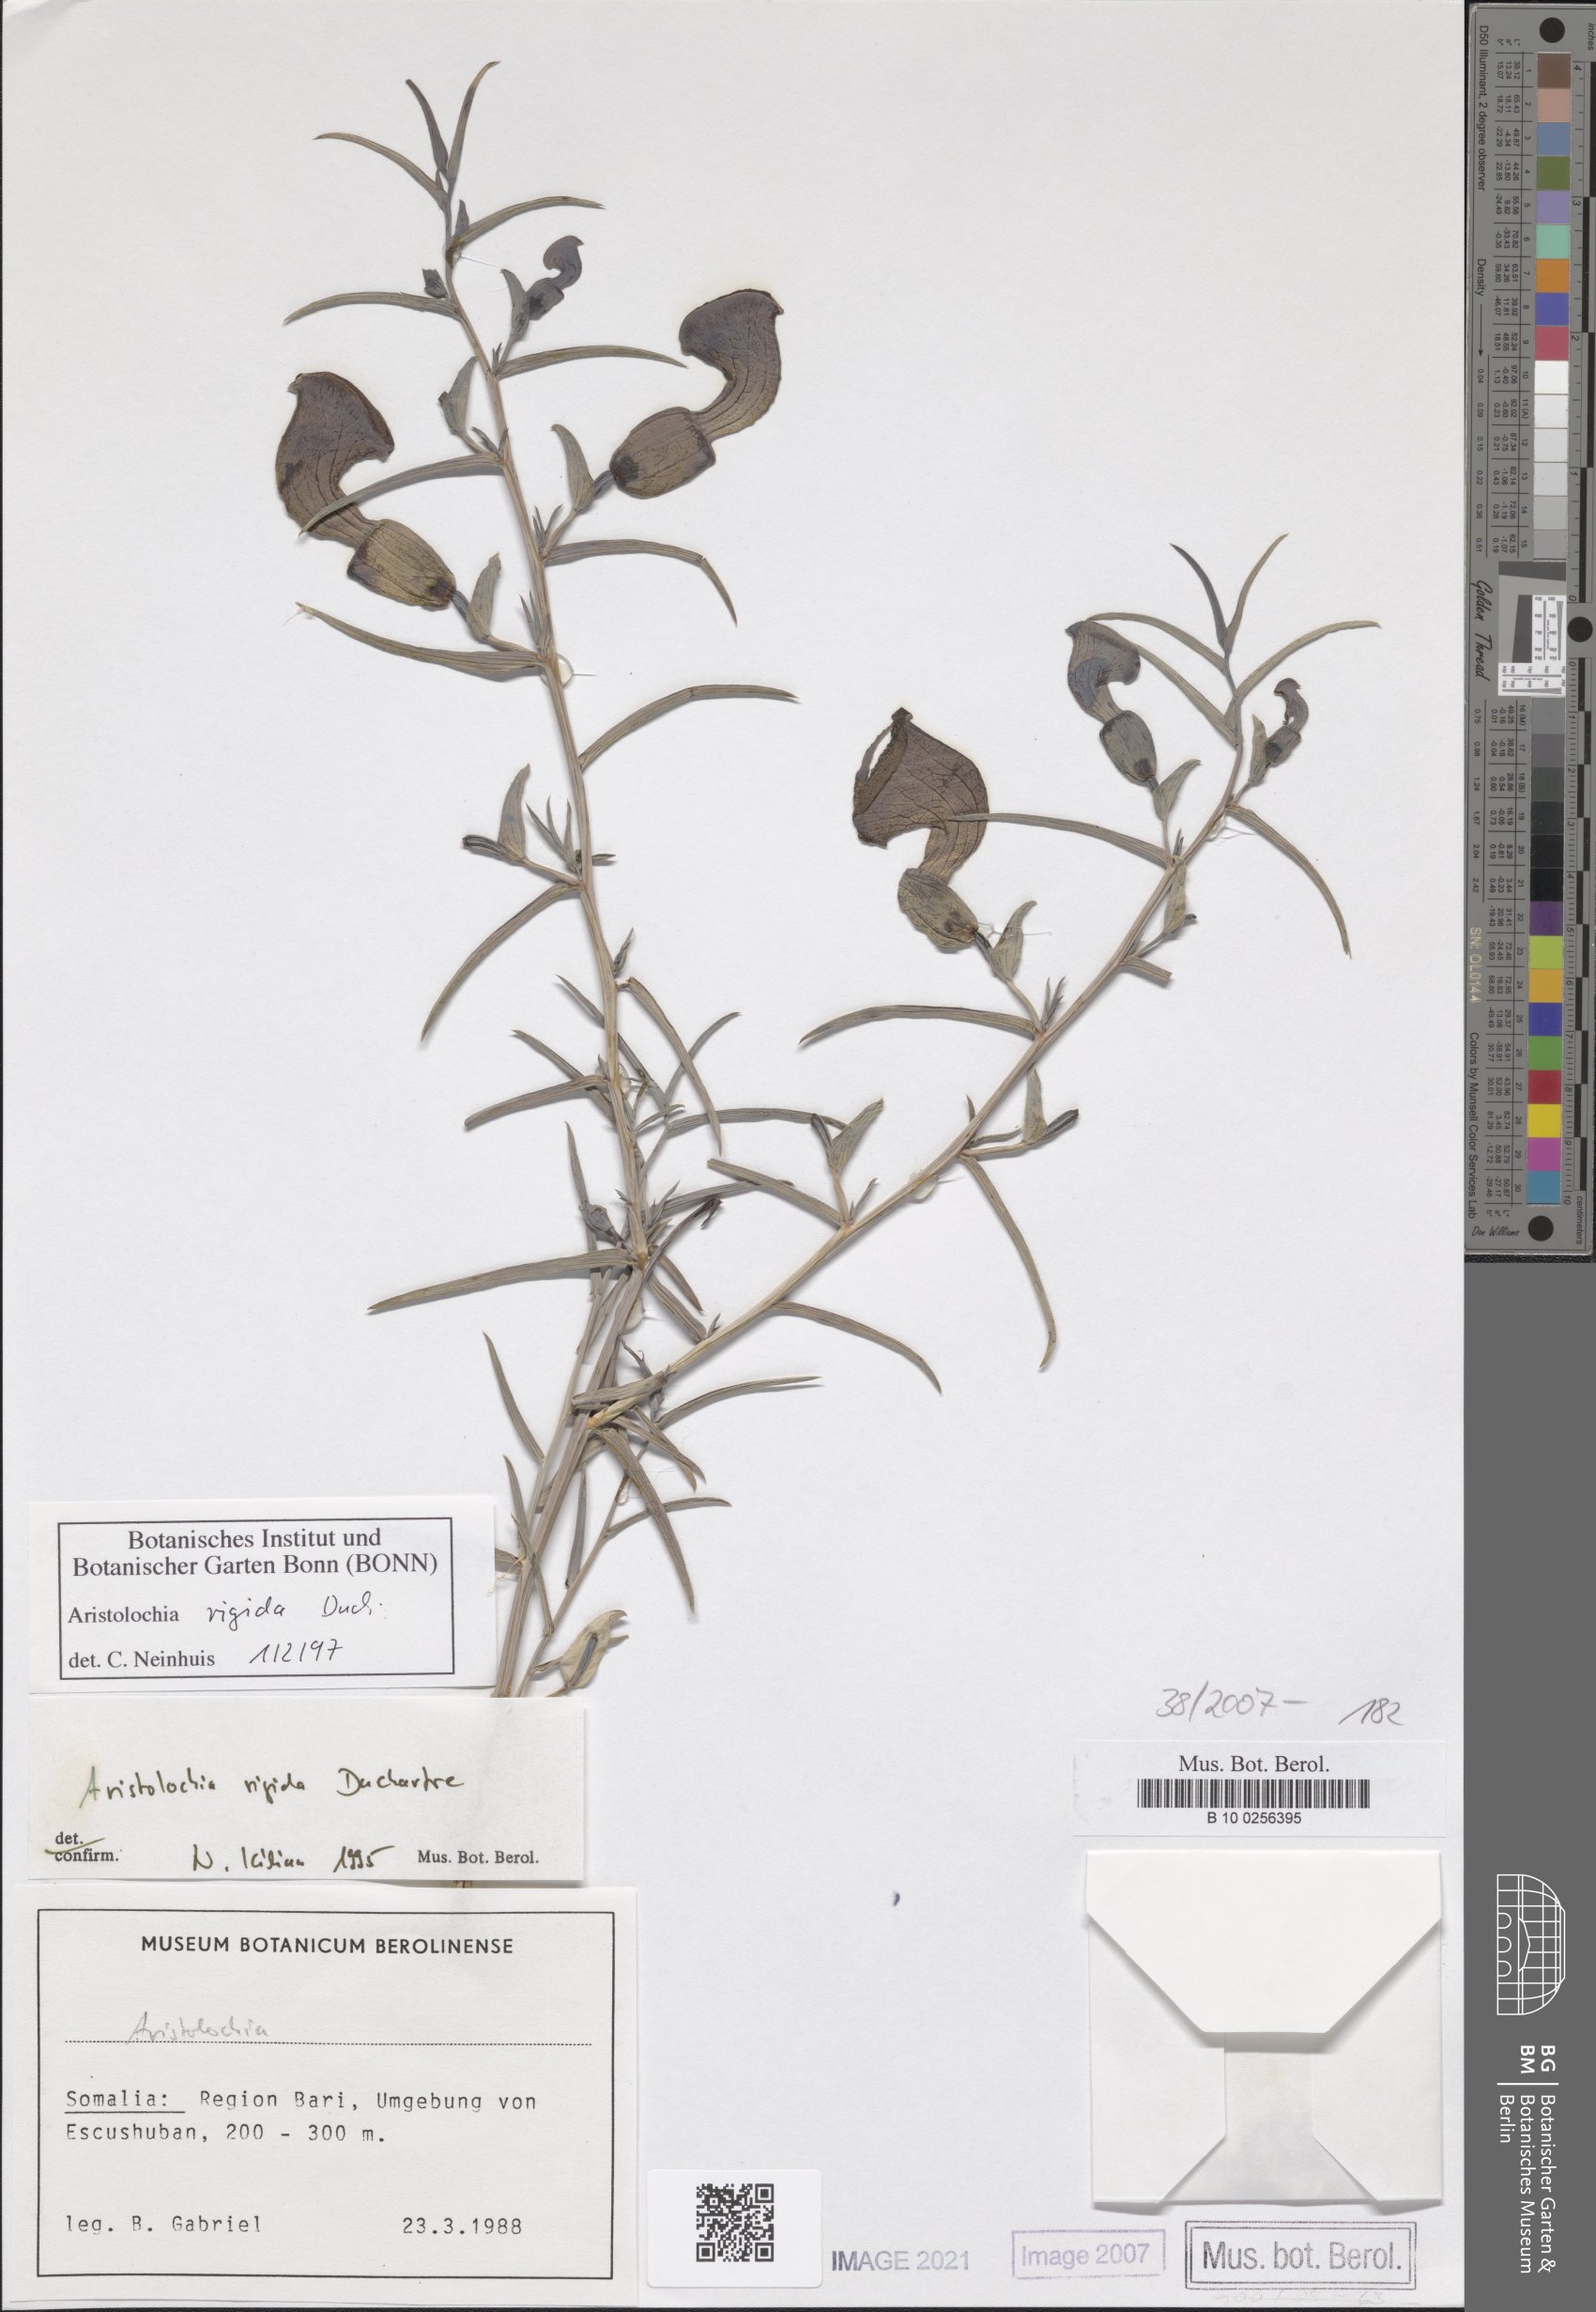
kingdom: Plantae
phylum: Tracheophyta
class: Magnoliopsida
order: Piperales
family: Aristolochiaceae
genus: Aristolochia
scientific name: Aristolochia rigida
